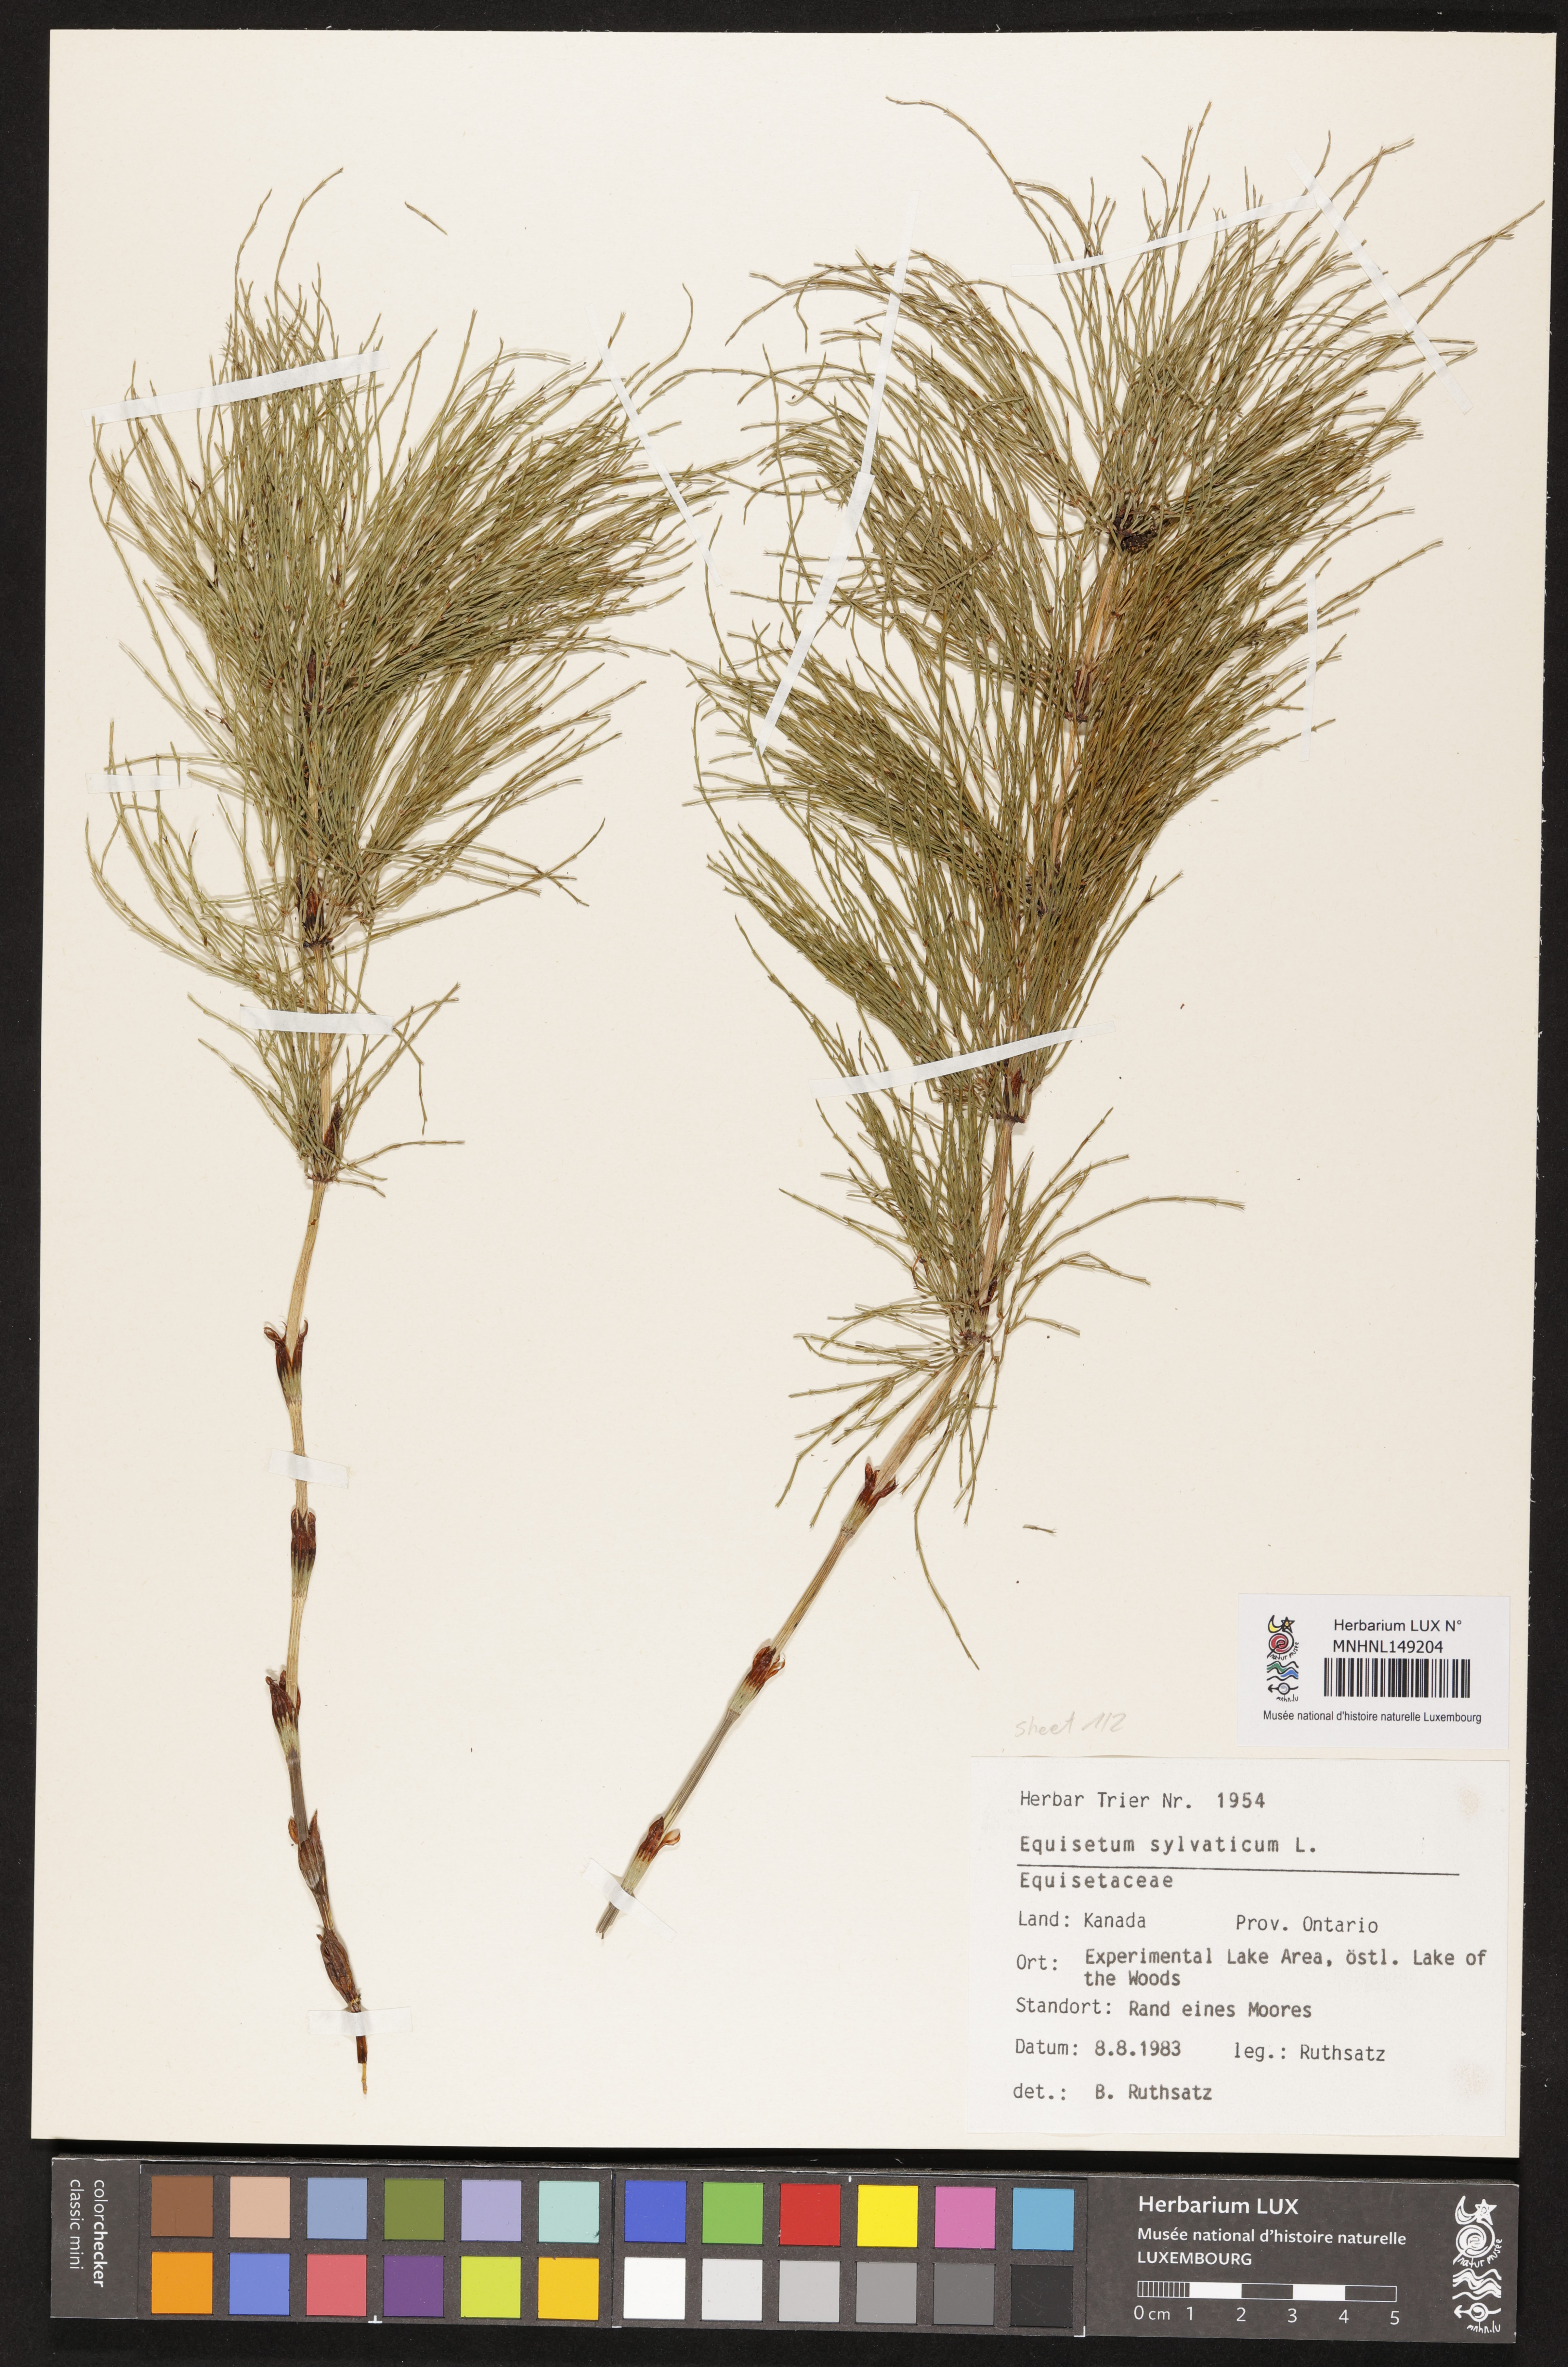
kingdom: Plantae
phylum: Tracheophyta
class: Polypodiopsida
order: Equisetales
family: Equisetaceae
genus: Equisetum
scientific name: Equisetum sylvaticum
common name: Wood horsetail
